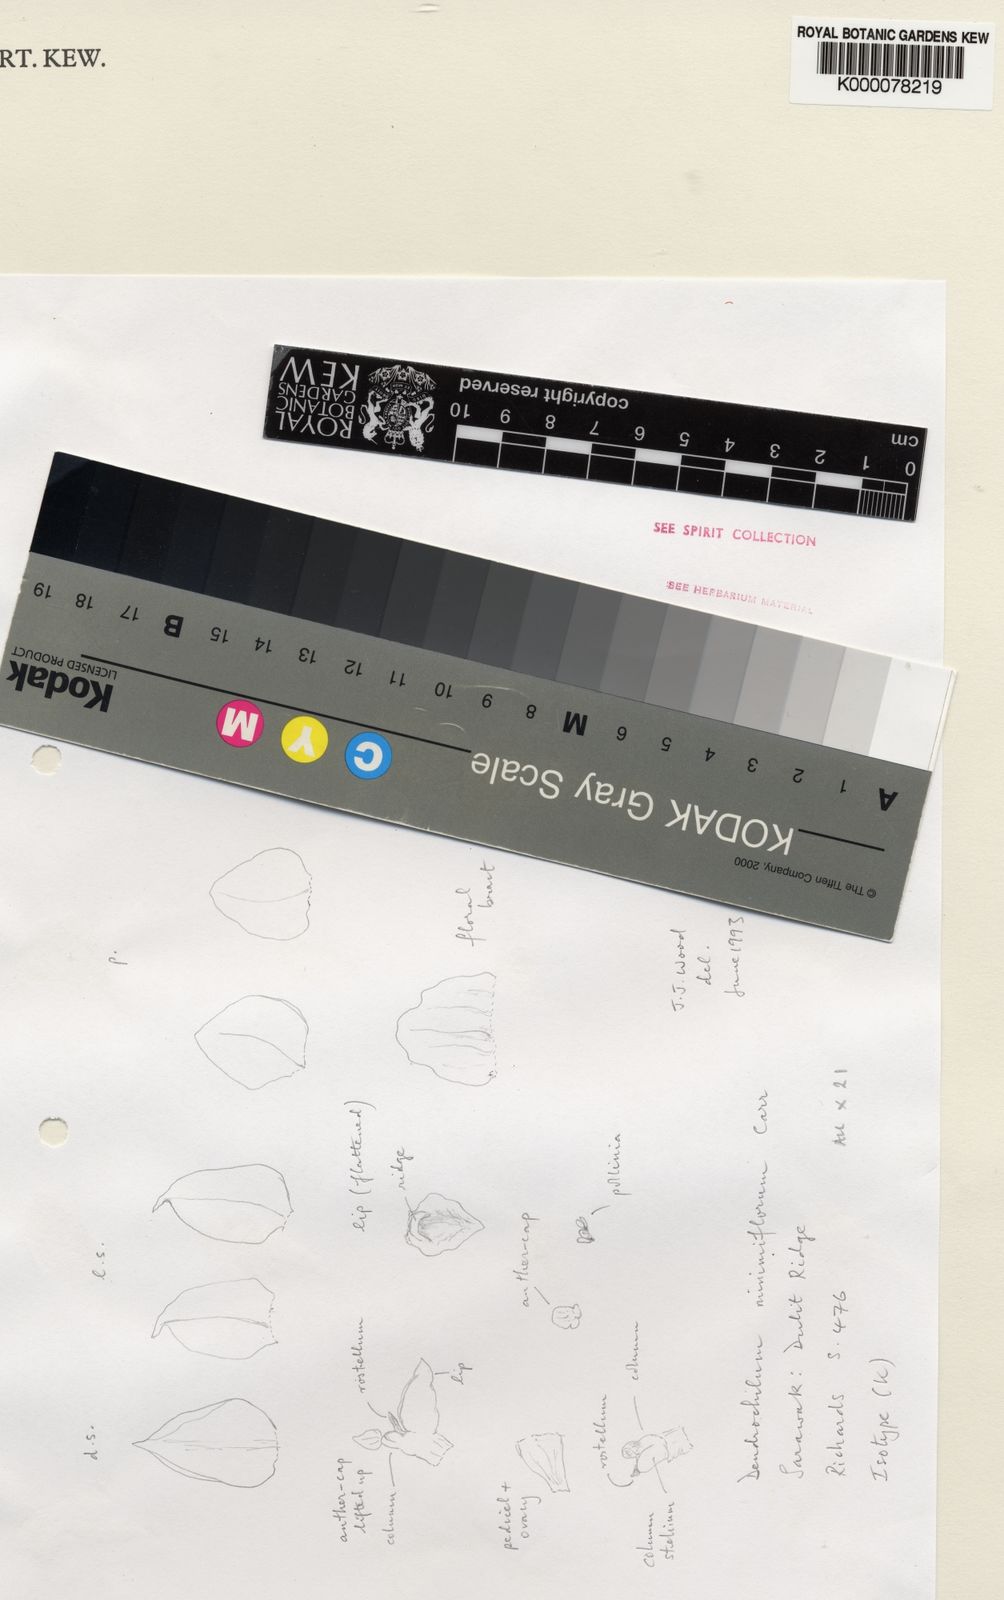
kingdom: Plantae
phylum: Tracheophyta
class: Liliopsida
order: Asparagales
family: Orchidaceae
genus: Coelogyne
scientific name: Coelogyne minimiflora
